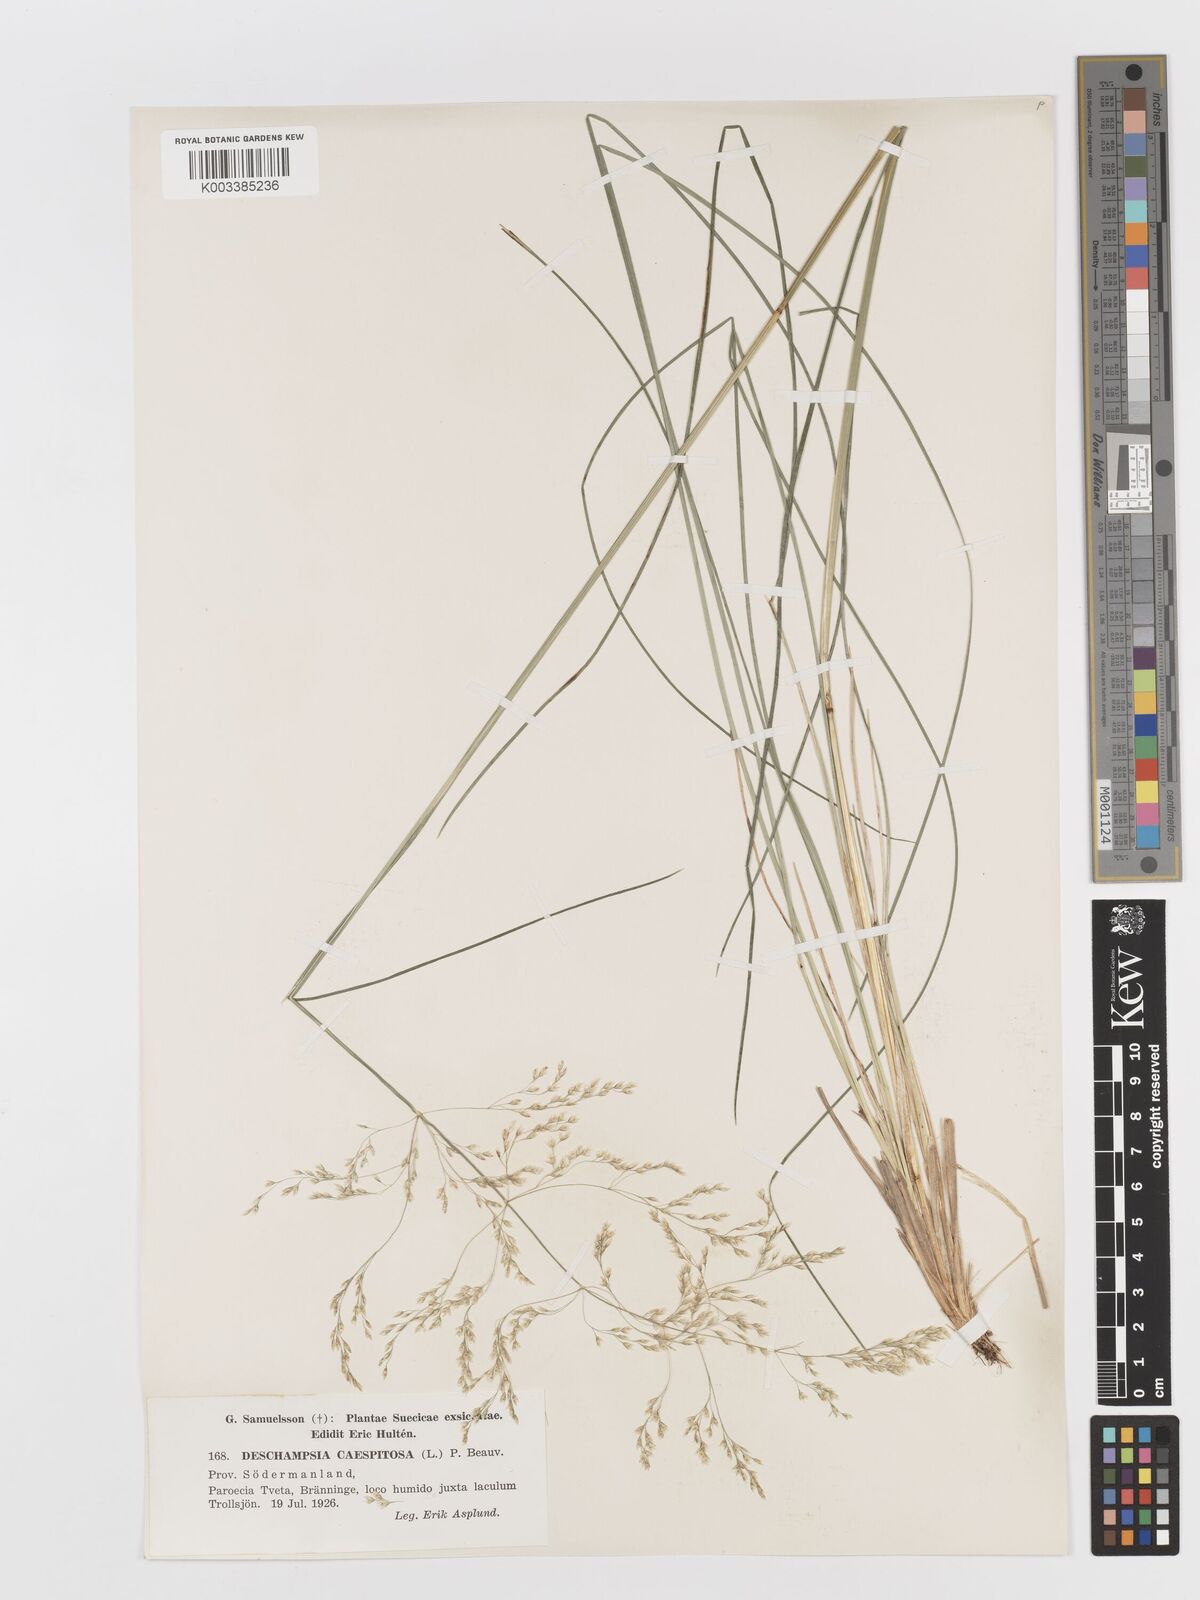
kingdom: Plantae
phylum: Tracheophyta
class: Liliopsida
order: Poales
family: Poaceae
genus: Deschampsia
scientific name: Deschampsia cespitosa
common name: Tufted hair-grass
